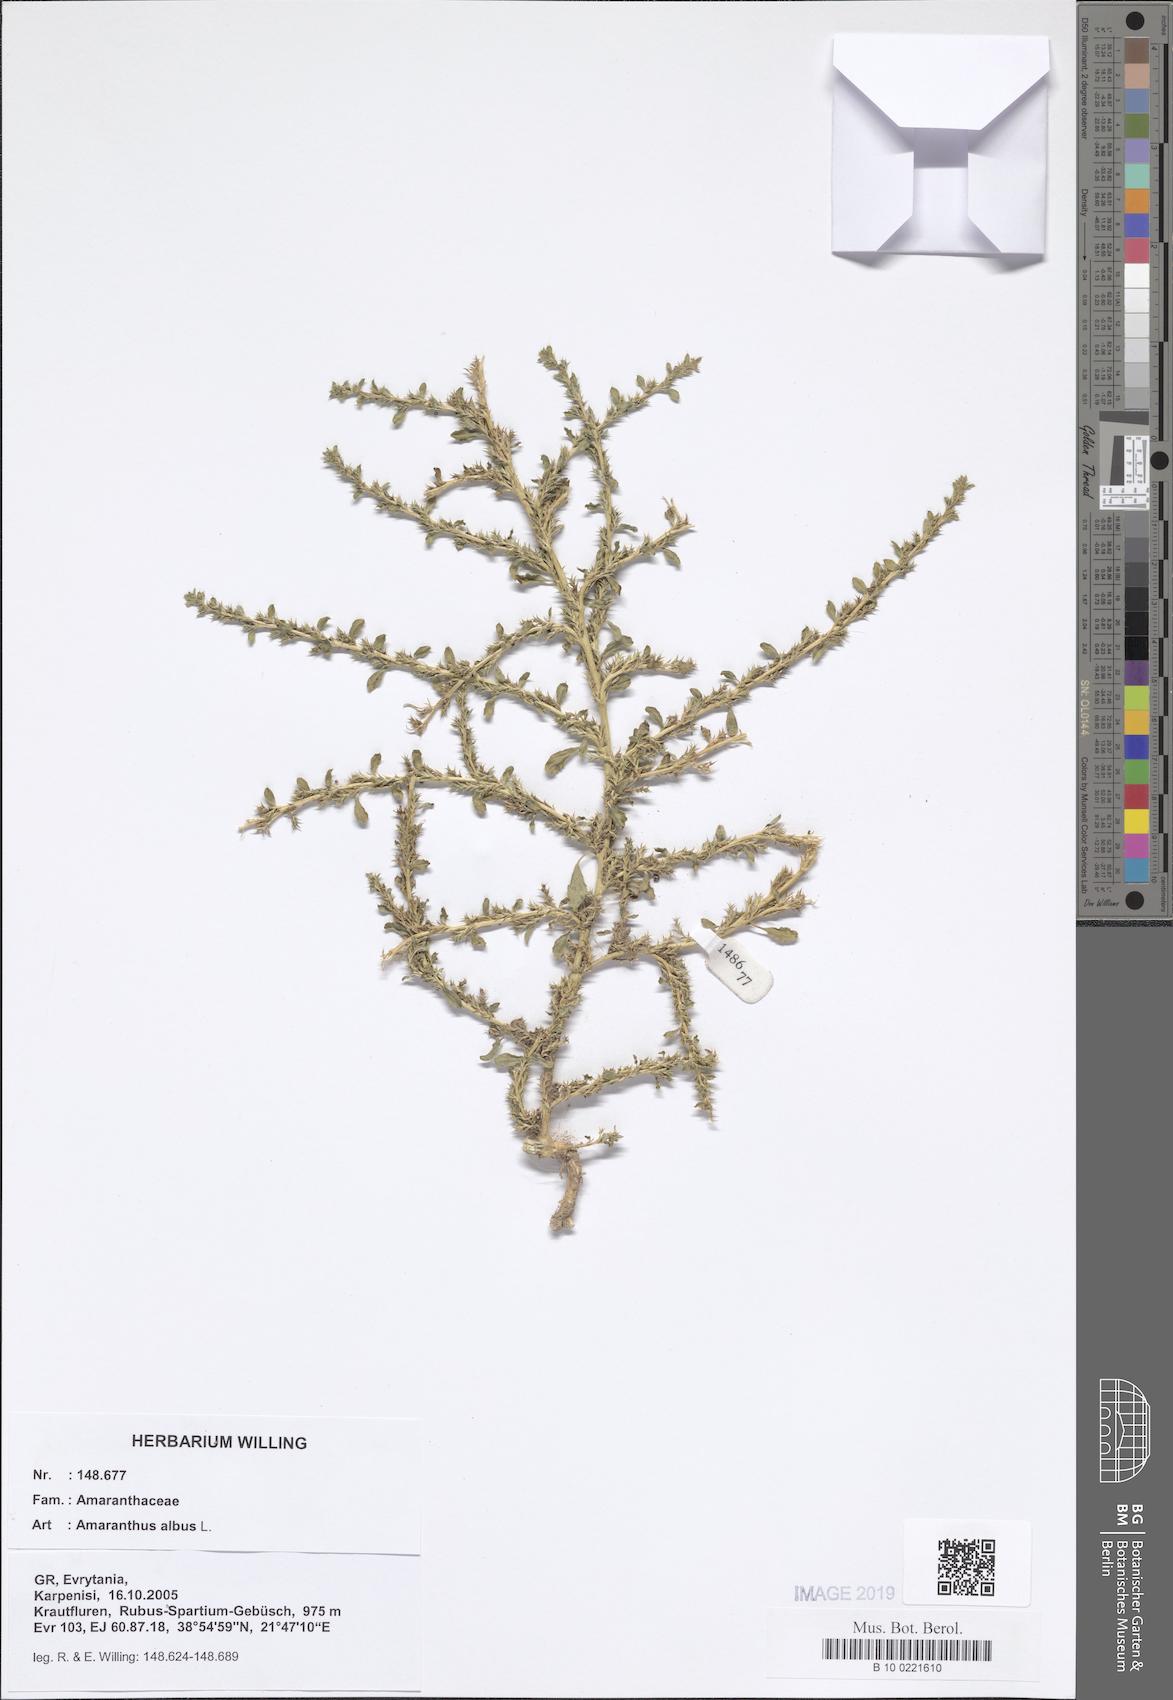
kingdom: Plantae
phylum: Tracheophyta
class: Magnoliopsida
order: Caryophyllales
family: Amaranthaceae
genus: Amaranthus
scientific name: Amaranthus albus
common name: White pigweed
